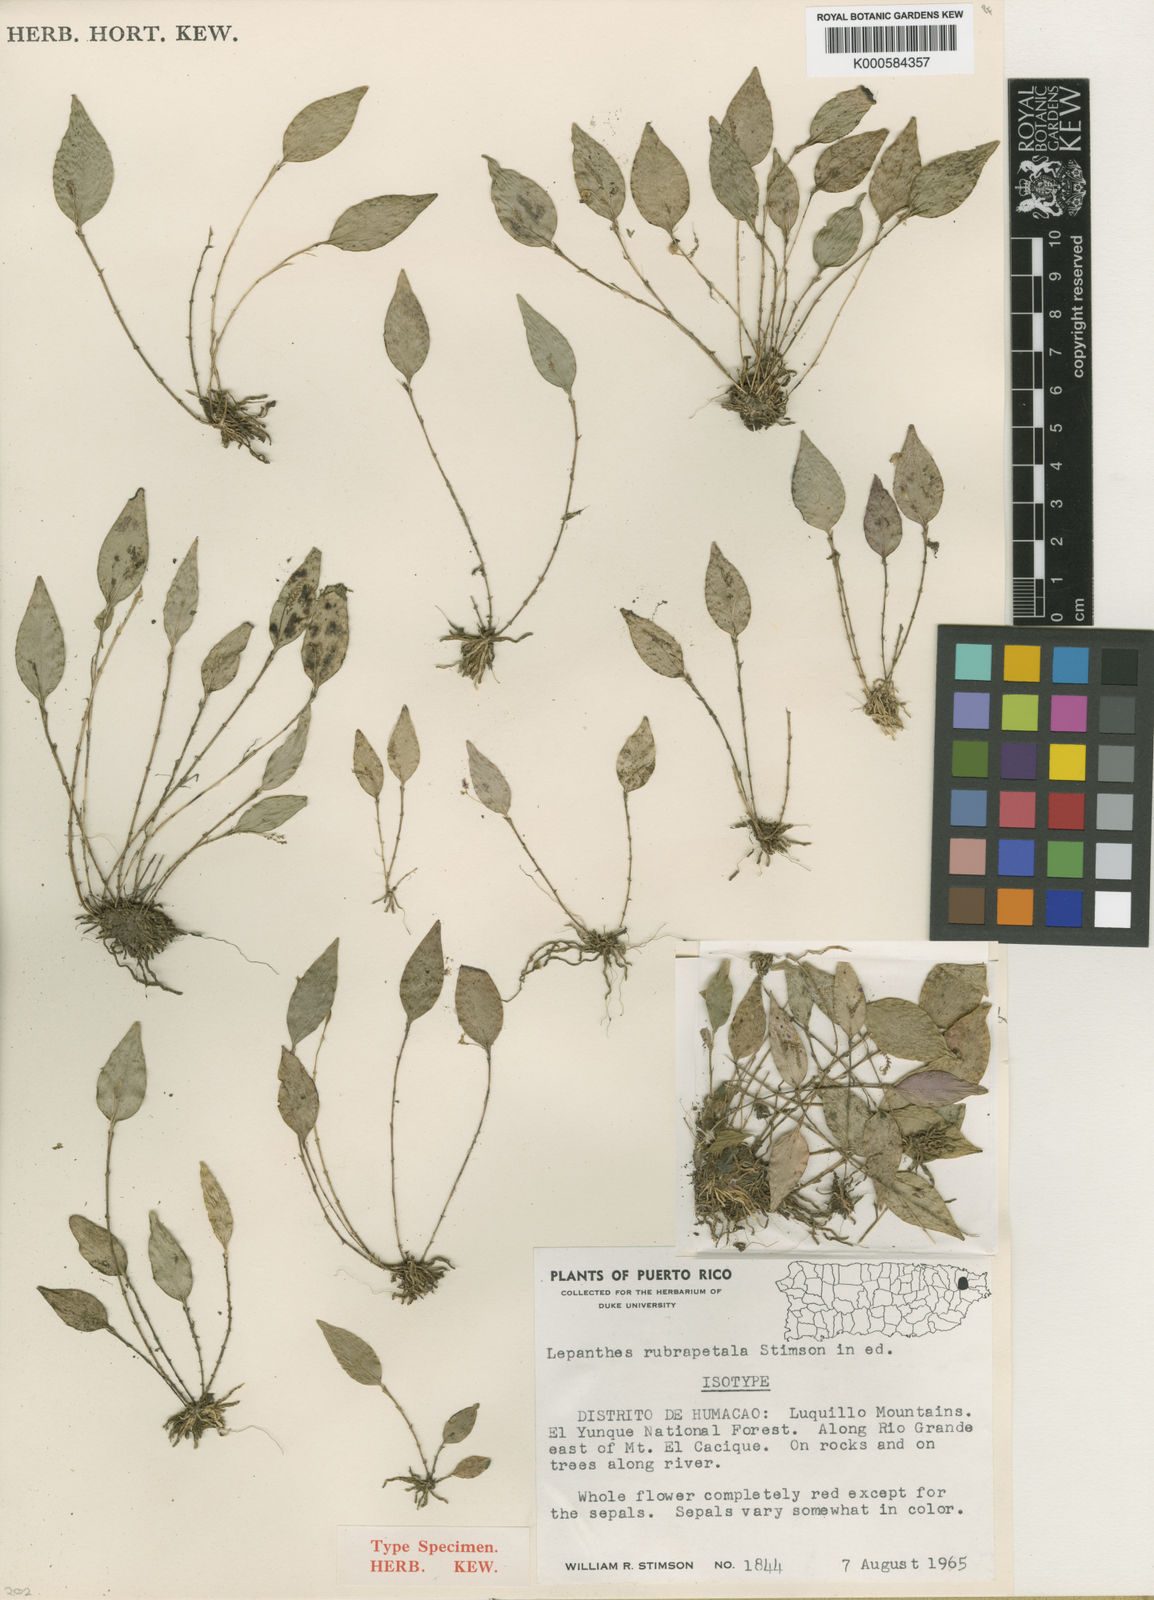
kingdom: Plantae
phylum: Tracheophyta
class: Liliopsida
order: Asparagales
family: Orchidaceae
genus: Lepanthes
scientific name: Lepanthes rubripetala
